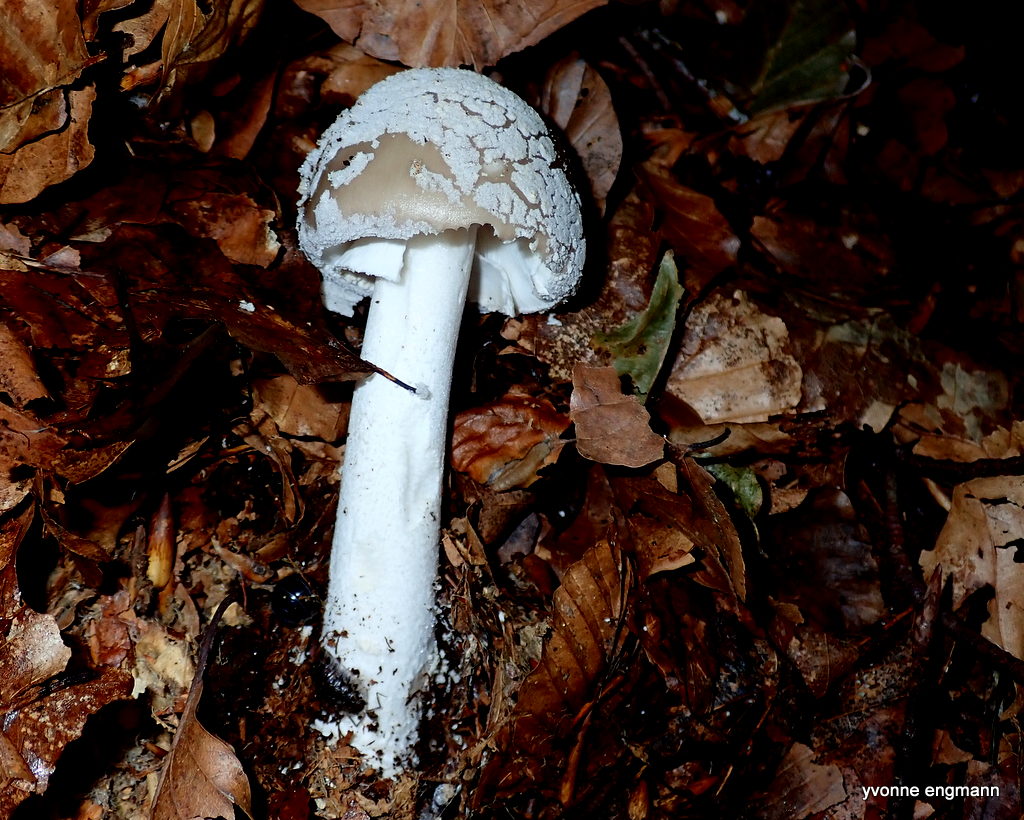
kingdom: Fungi
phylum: Basidiomycota
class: Agaricomycetes
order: Agaricales
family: Amanitaceae
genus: Amanita
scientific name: Amanita
